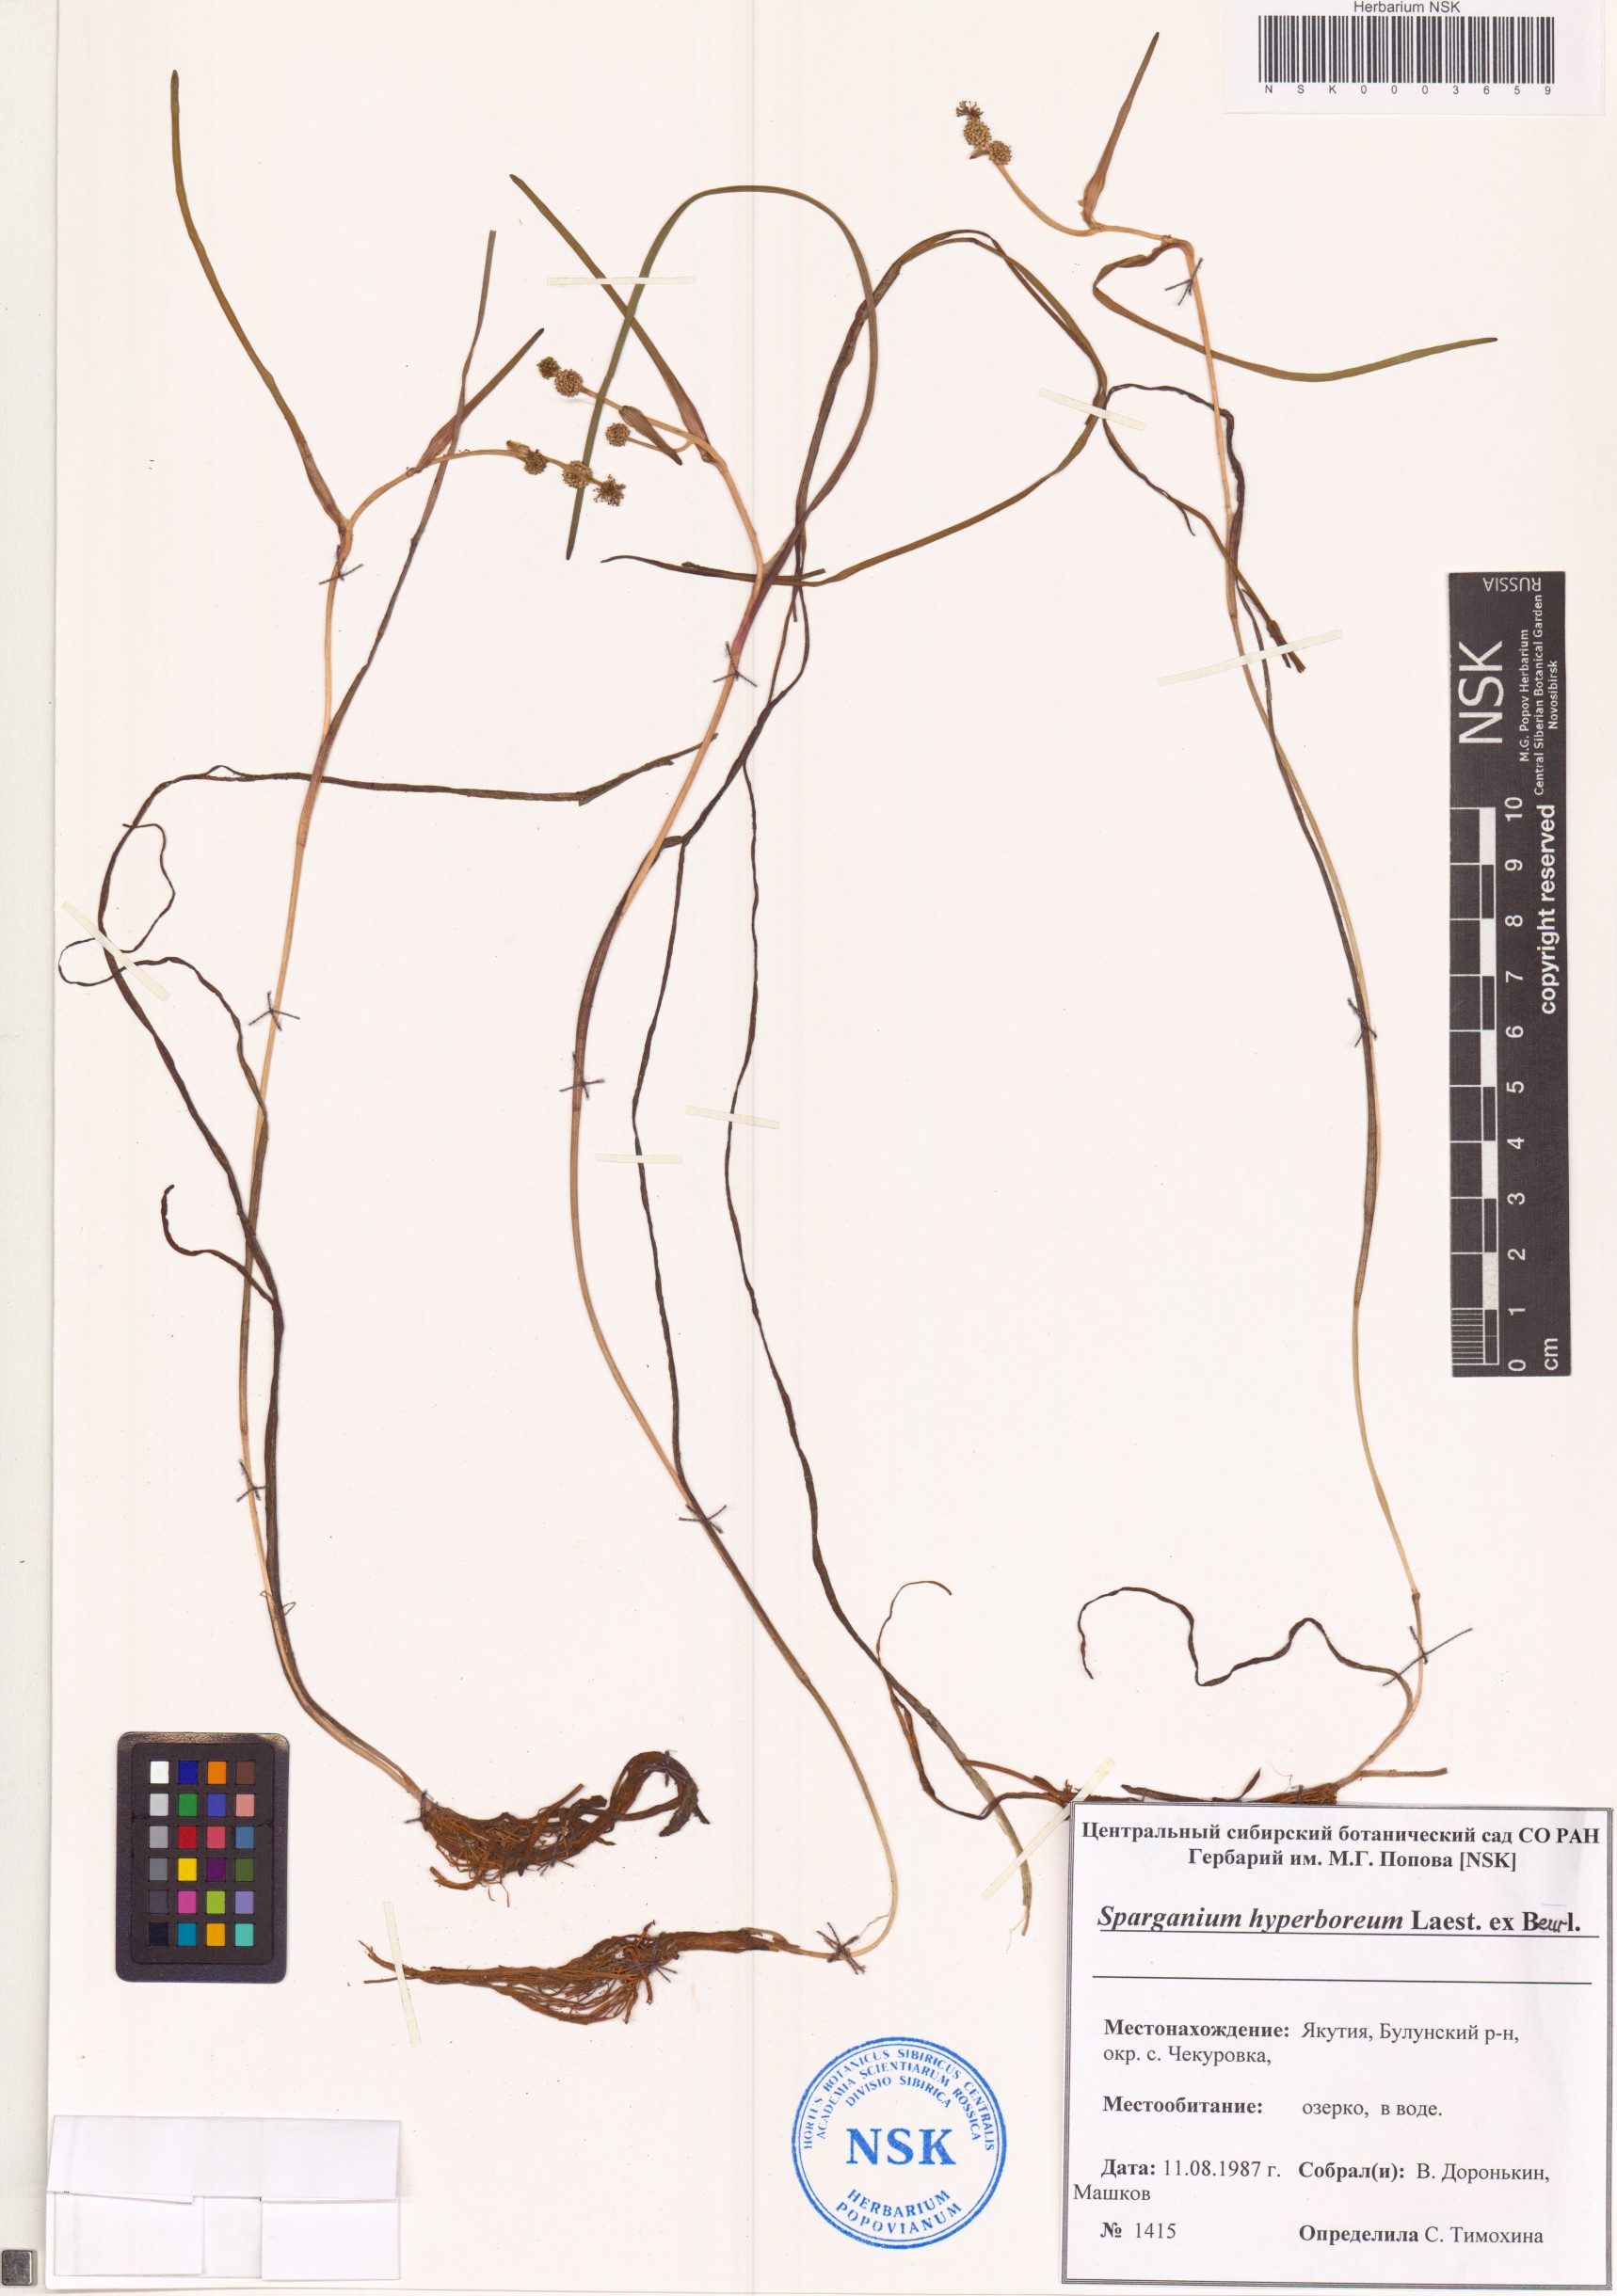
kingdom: Plantae
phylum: Tracheophyta
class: Liliopsida
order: Poales
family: Typhaceae
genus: Sparganium
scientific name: Sparganium hyperboreum
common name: Arctic burreed
